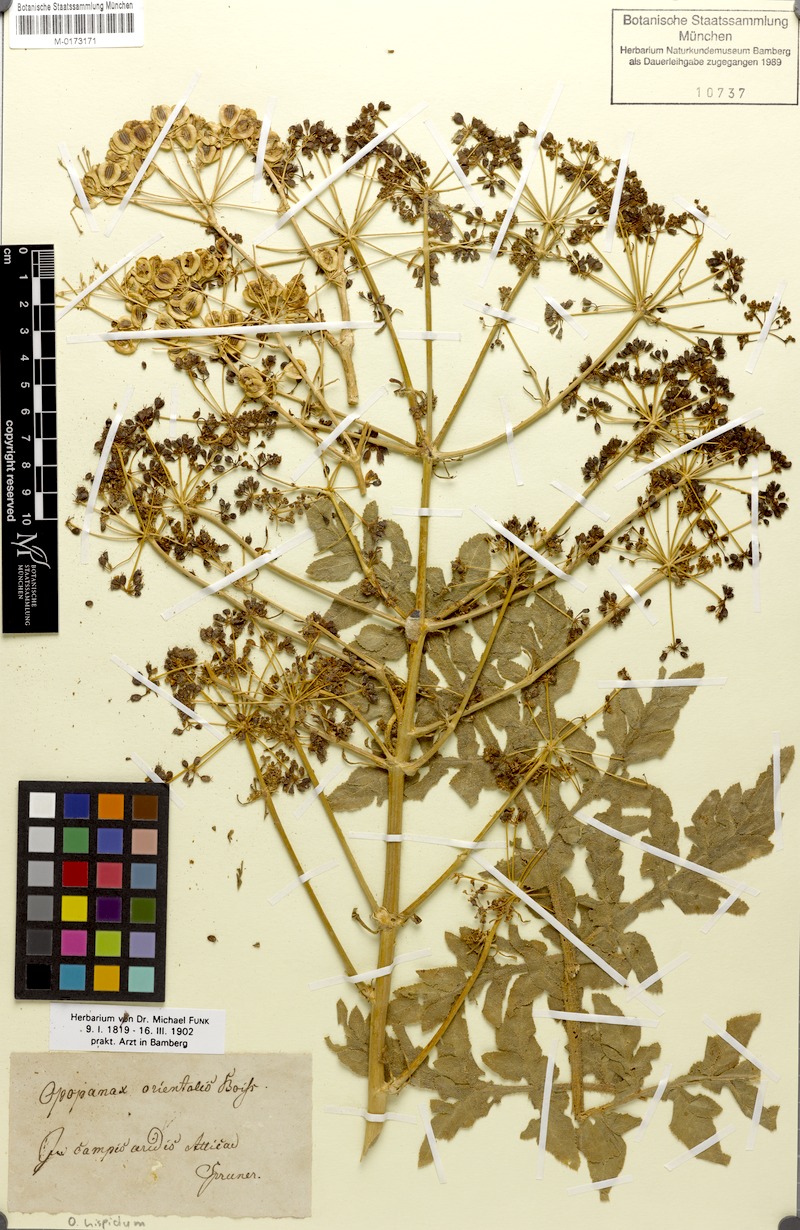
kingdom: Plantae
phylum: Tracheophyta
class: Magnoliopsida
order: Apiales
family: Apiaceae
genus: Opopanax
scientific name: Opopanax hispidus
